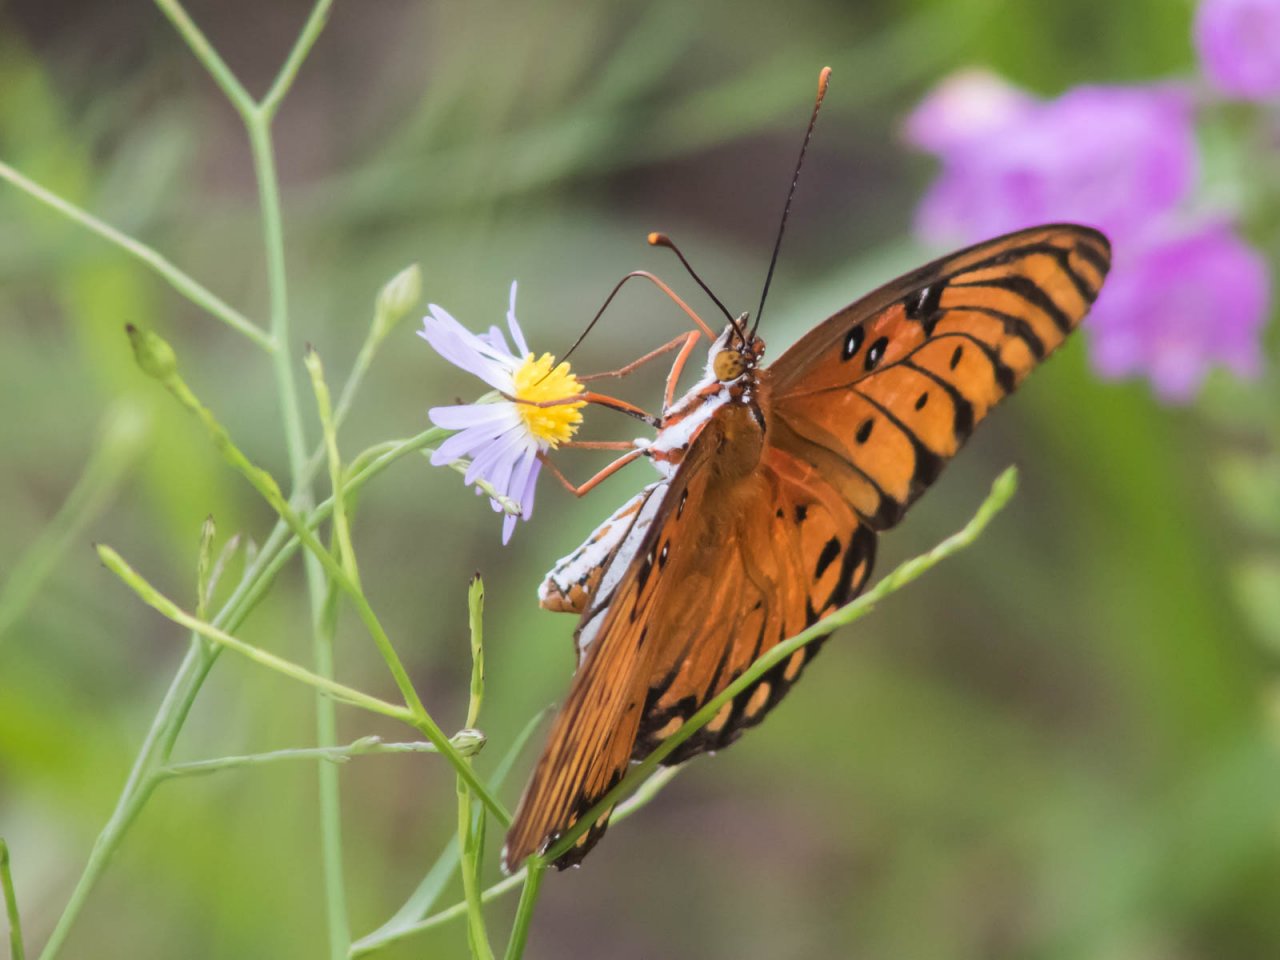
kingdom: Animalia
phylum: Arthropoda
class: Insecta
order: Lepidoptera
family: Nymphalidae
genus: Dione
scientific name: Dione vanillae
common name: Gulf Fritillary
